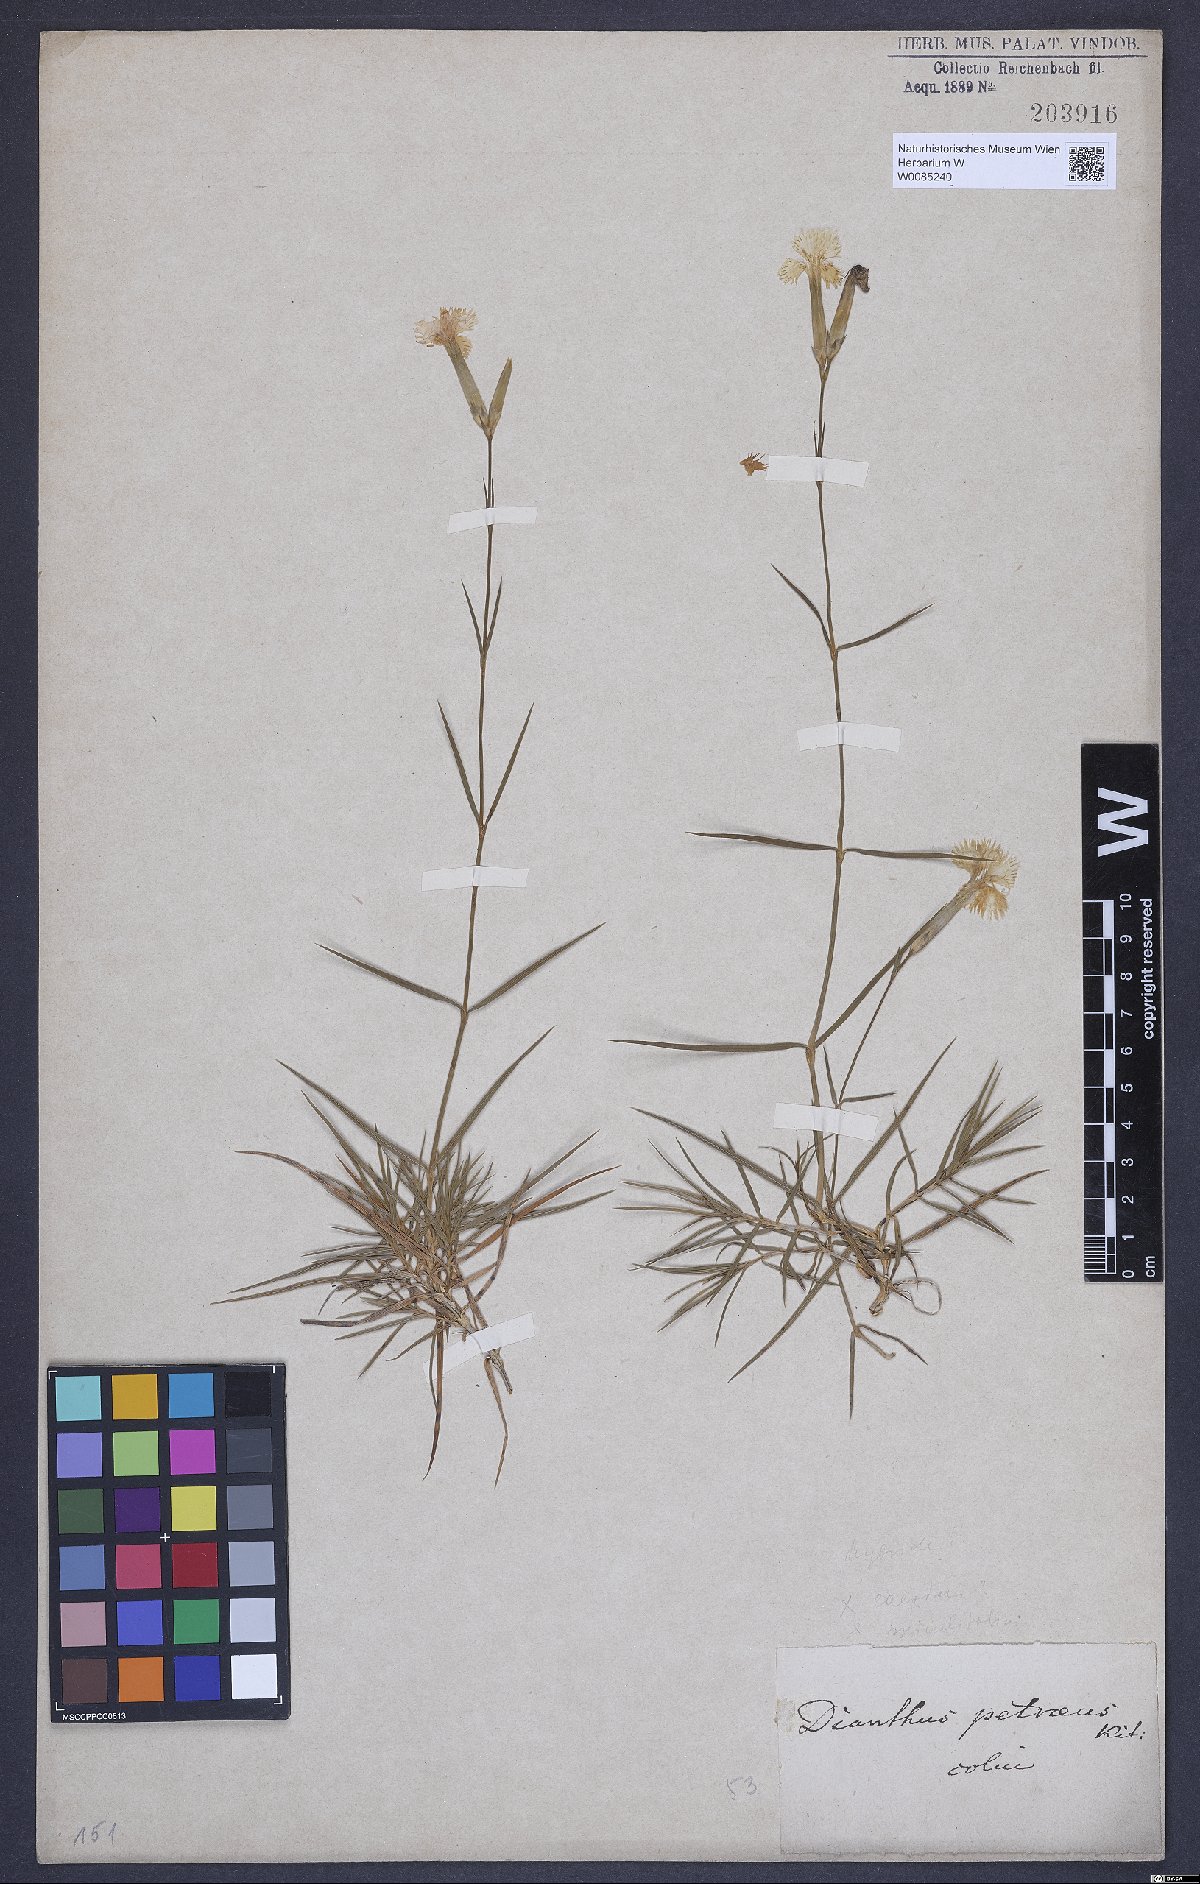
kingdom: Plantae
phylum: Tracheophyta
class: Magnoliopsida
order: Caryophyllales
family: Caryophyllaceae
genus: Dianthus
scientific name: Dianthus petraeus
